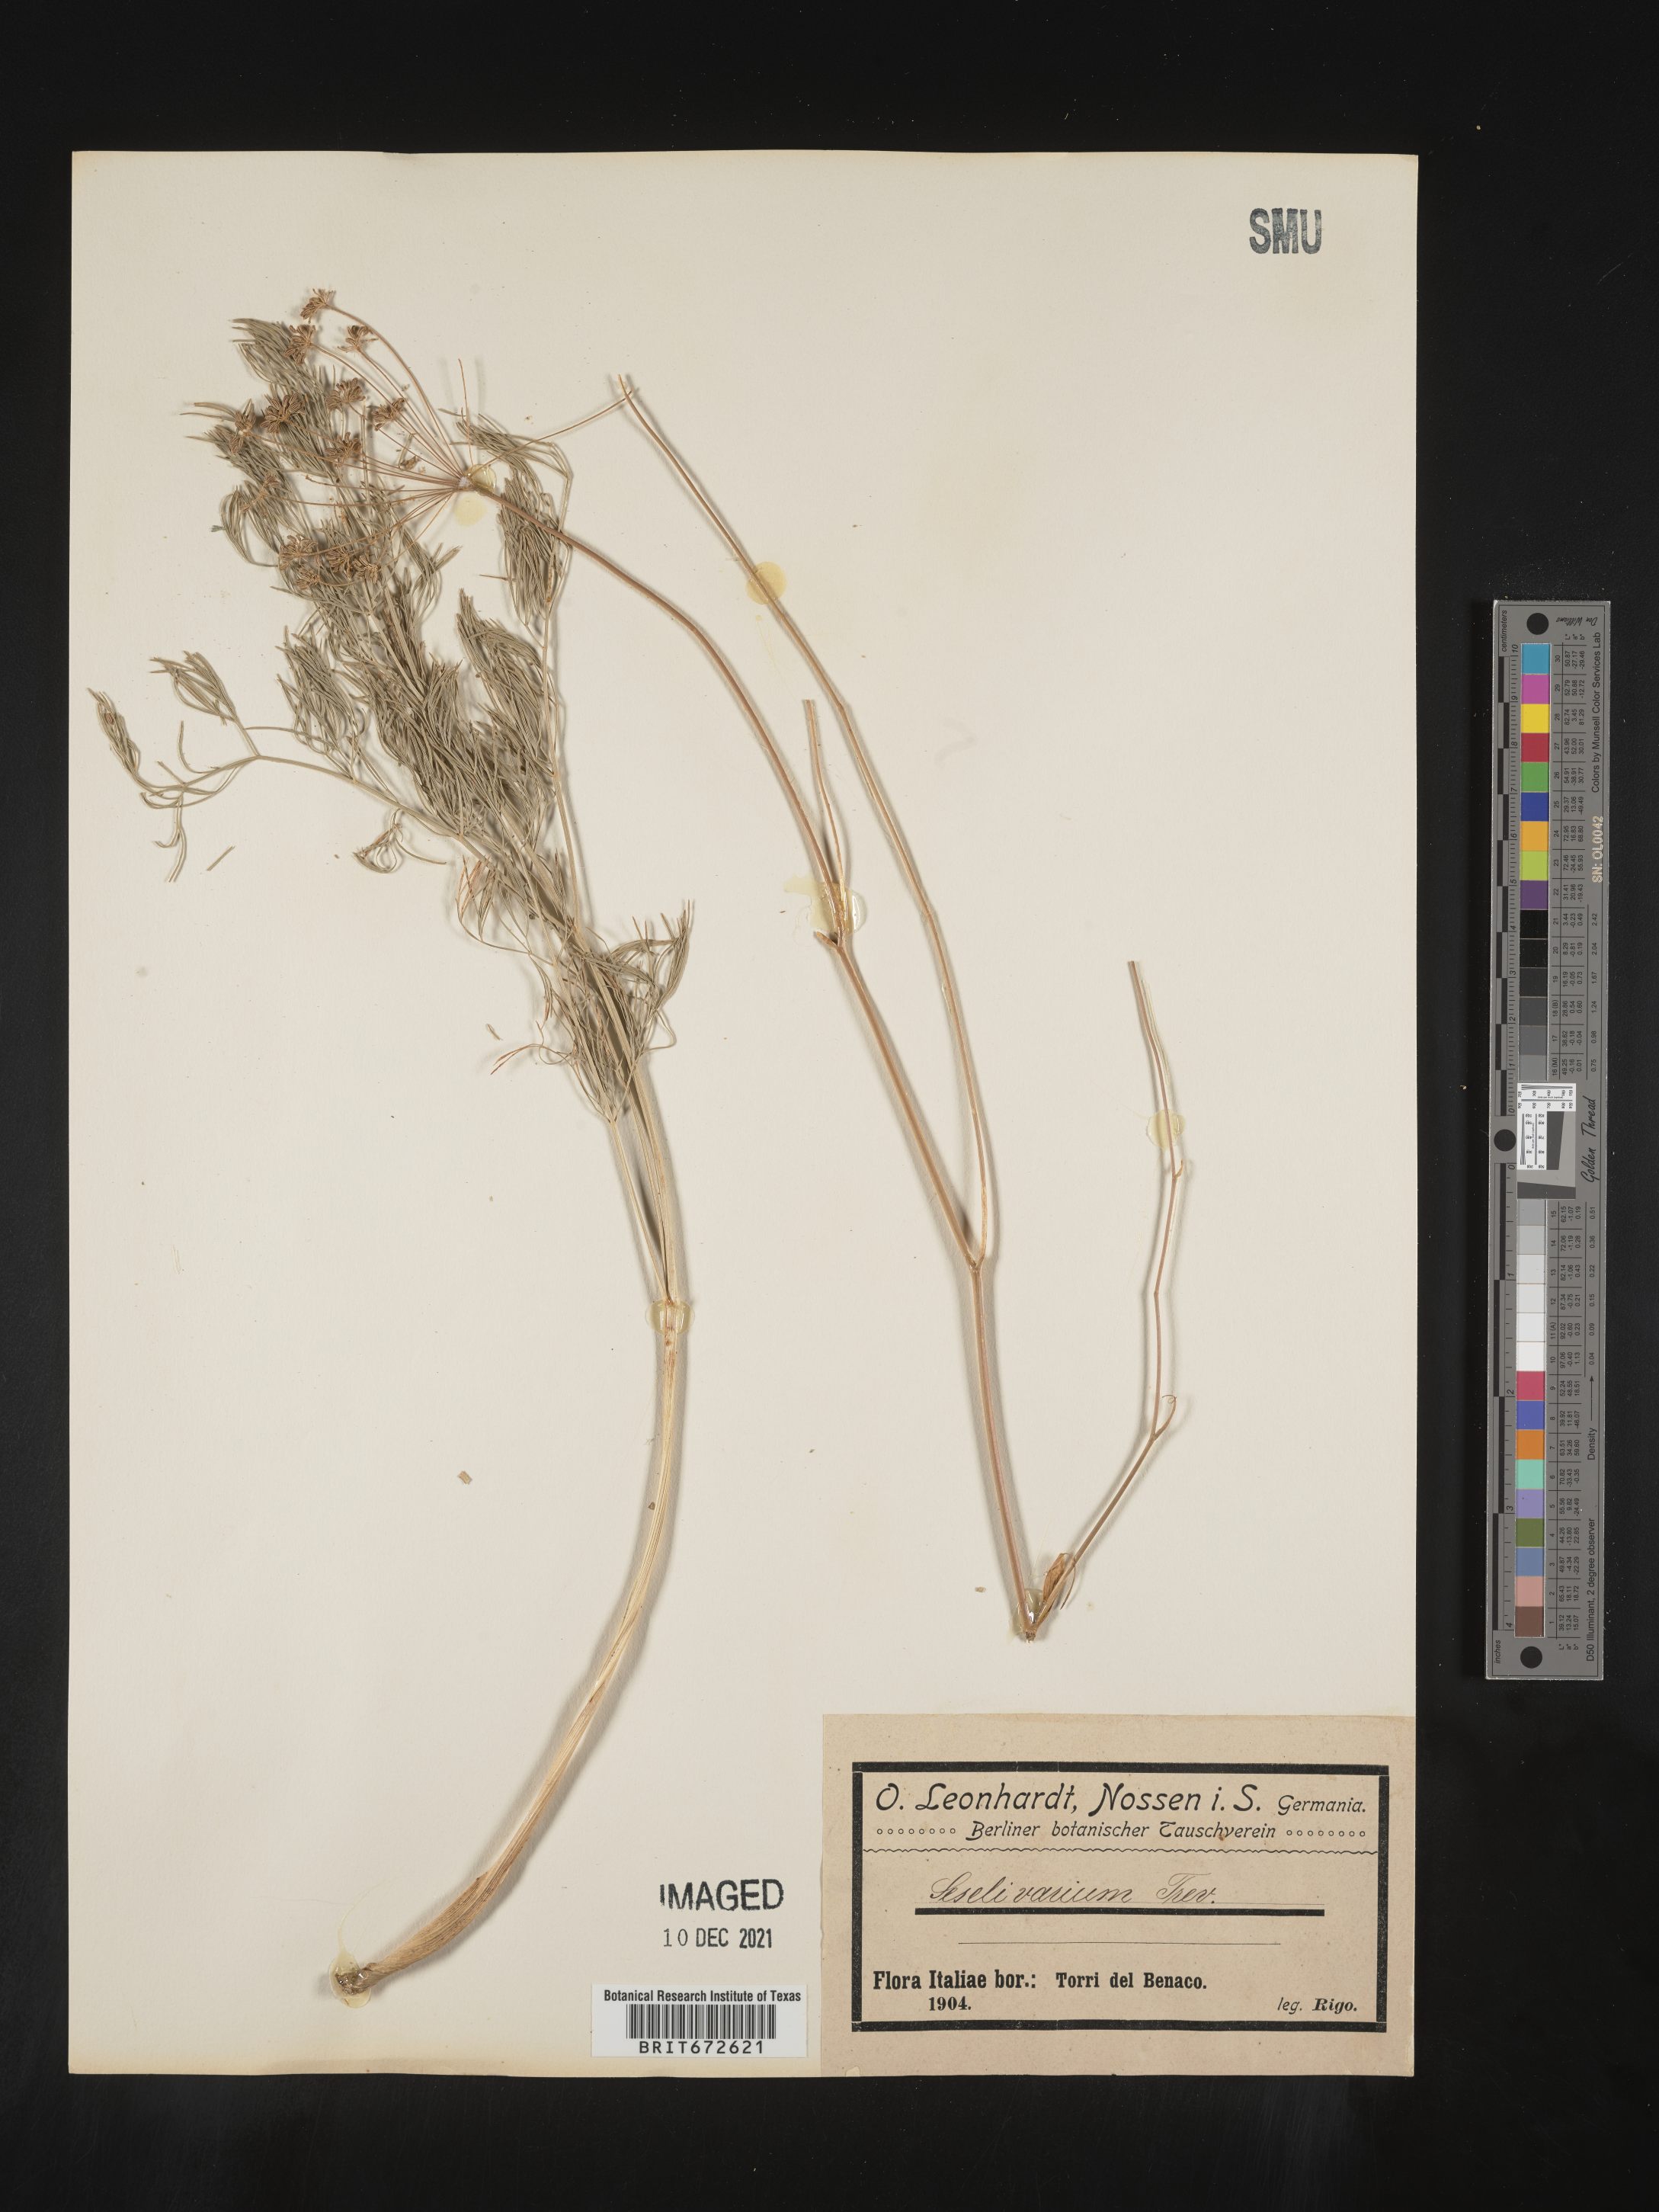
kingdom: Plantae
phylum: Tracheophyta
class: Magnoliopsida
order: Apiales
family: Apiaceae
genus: Seseli
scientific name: Seseli
